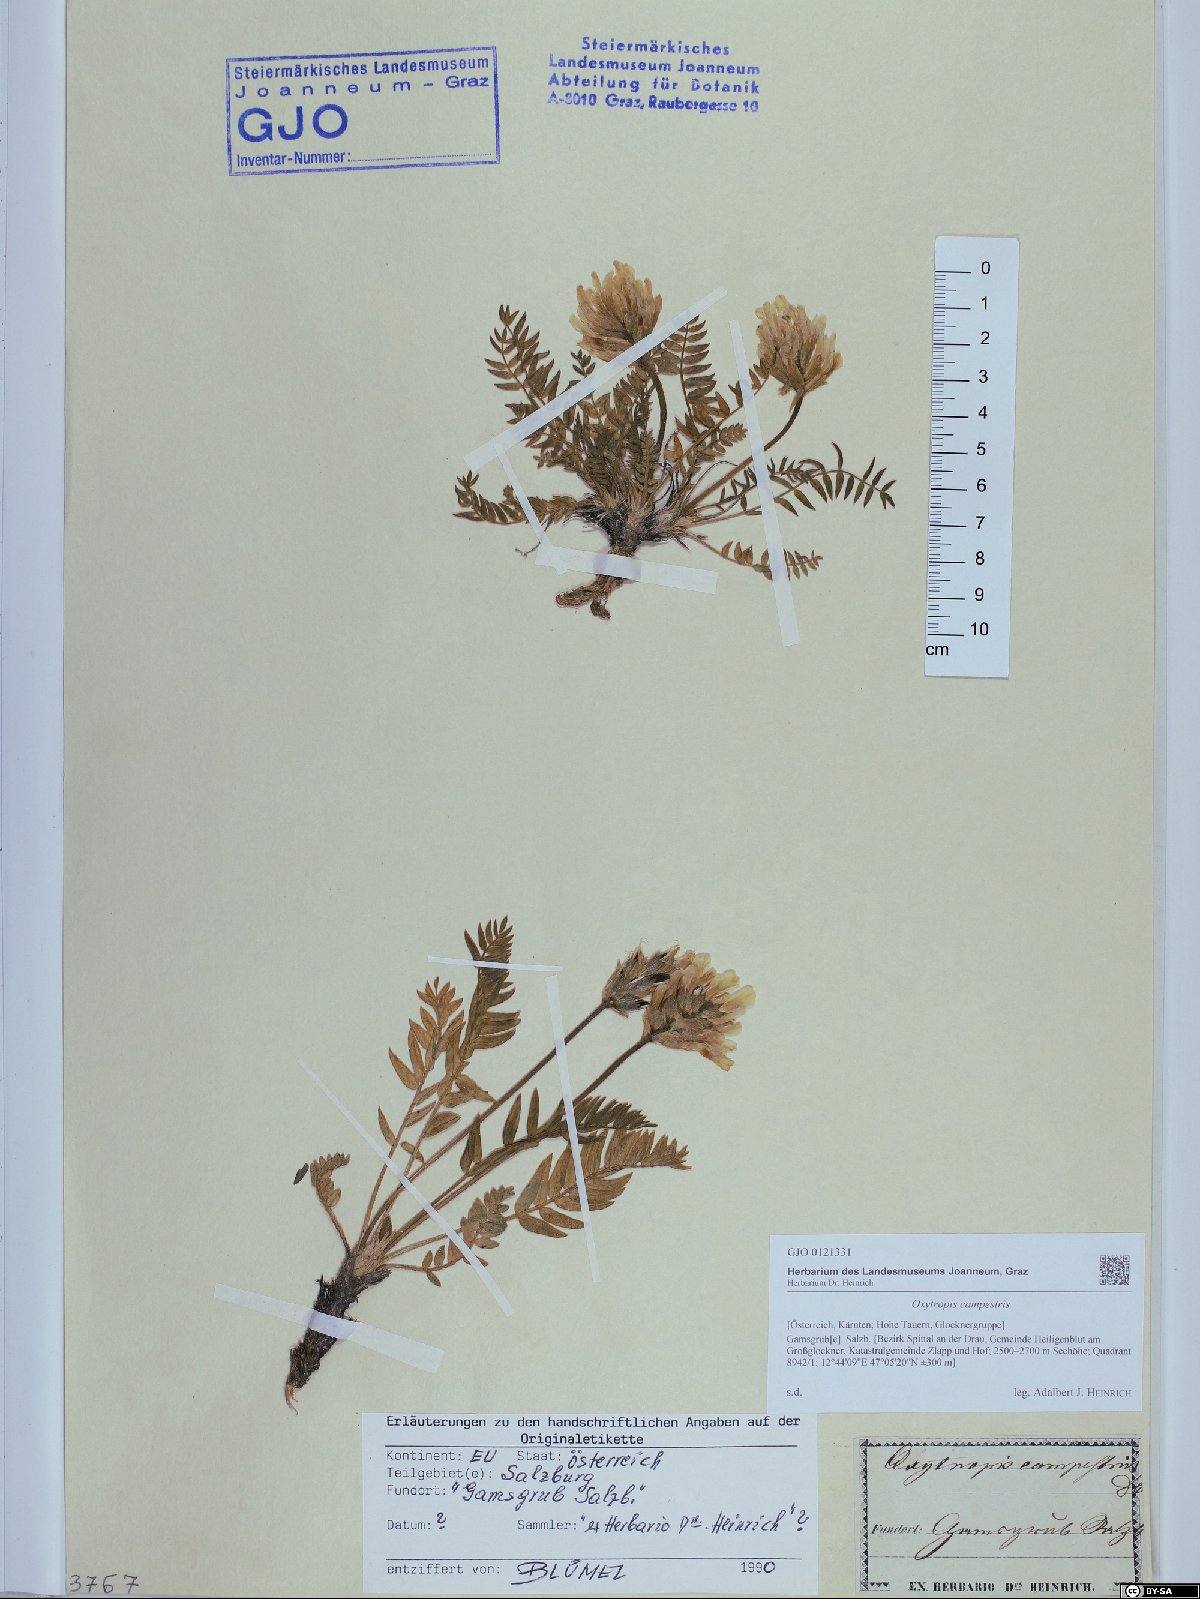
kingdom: Plantae
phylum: Tracheophyta
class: Magnoliopsida
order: Fabales
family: Fabaceae
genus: Oxytropis
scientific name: Oxytropis campestris
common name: Field locoweed
